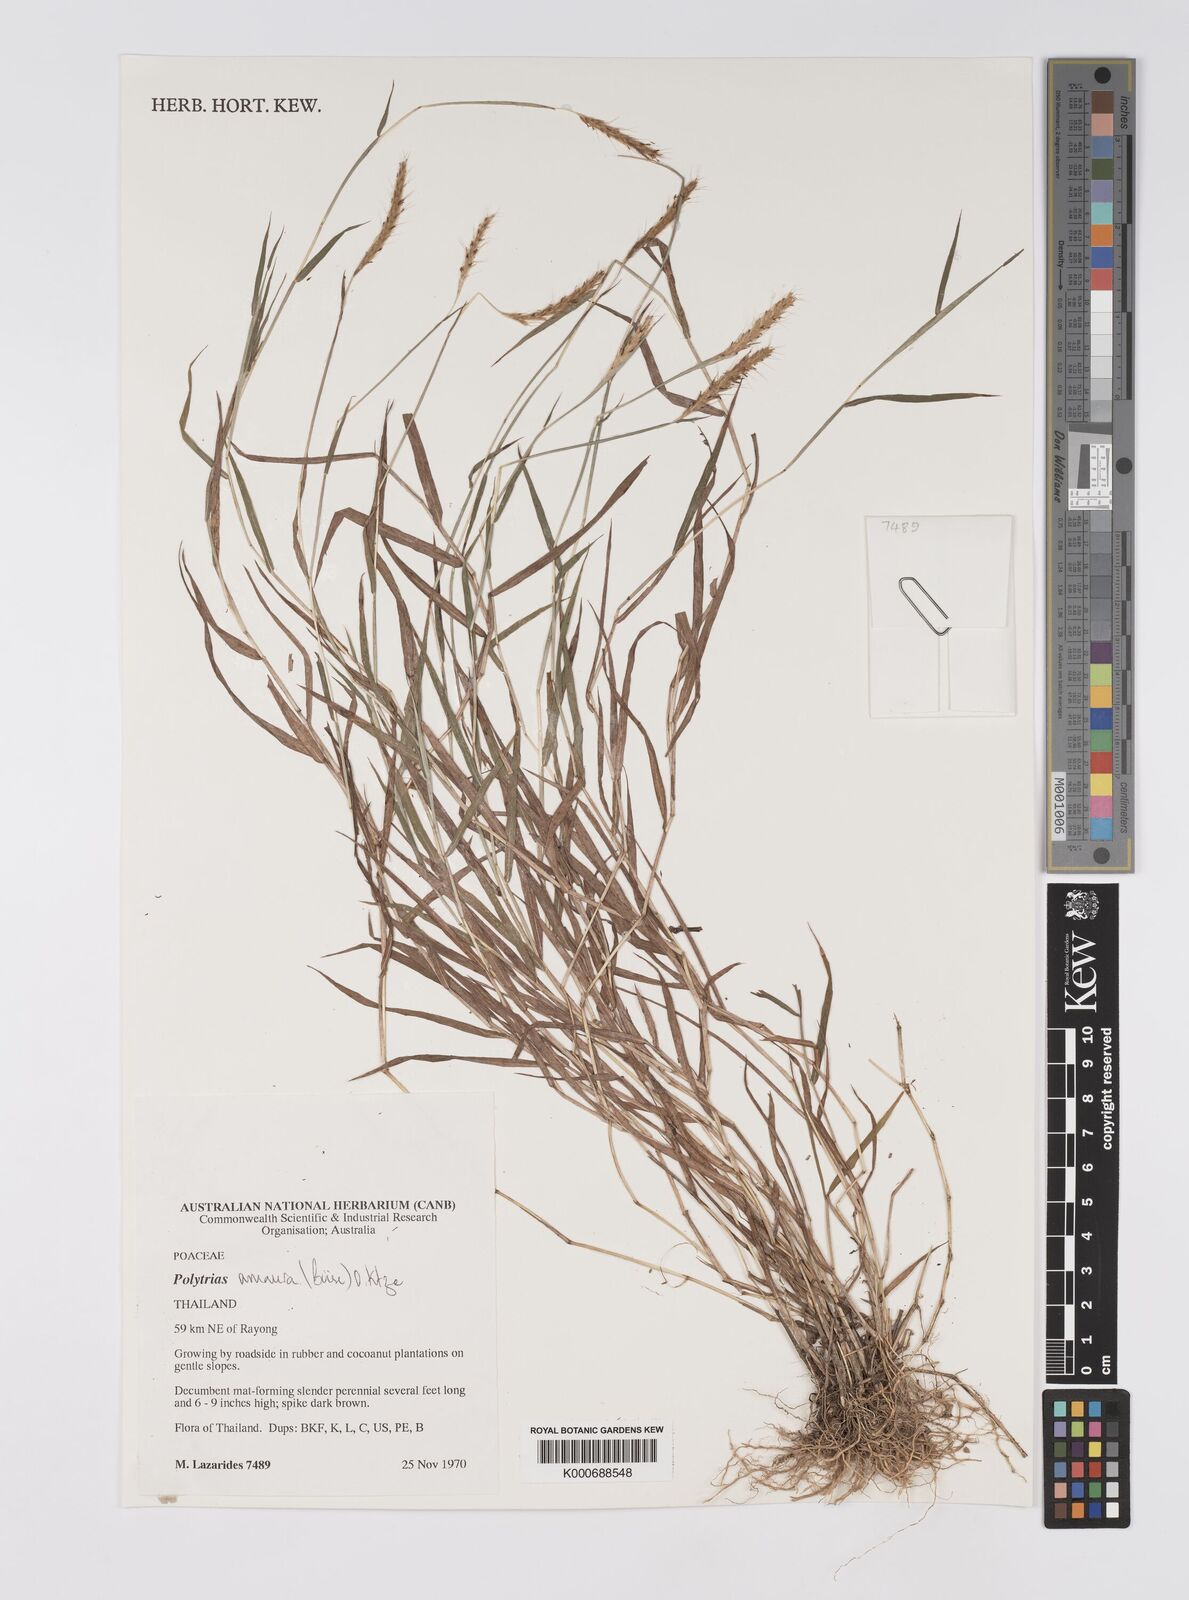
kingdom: Plantae
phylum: Tracheophyta
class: Liliopsida
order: Poales
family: Poaceae
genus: Polytrias
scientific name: Polytrias indica
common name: Indian murainagrass
